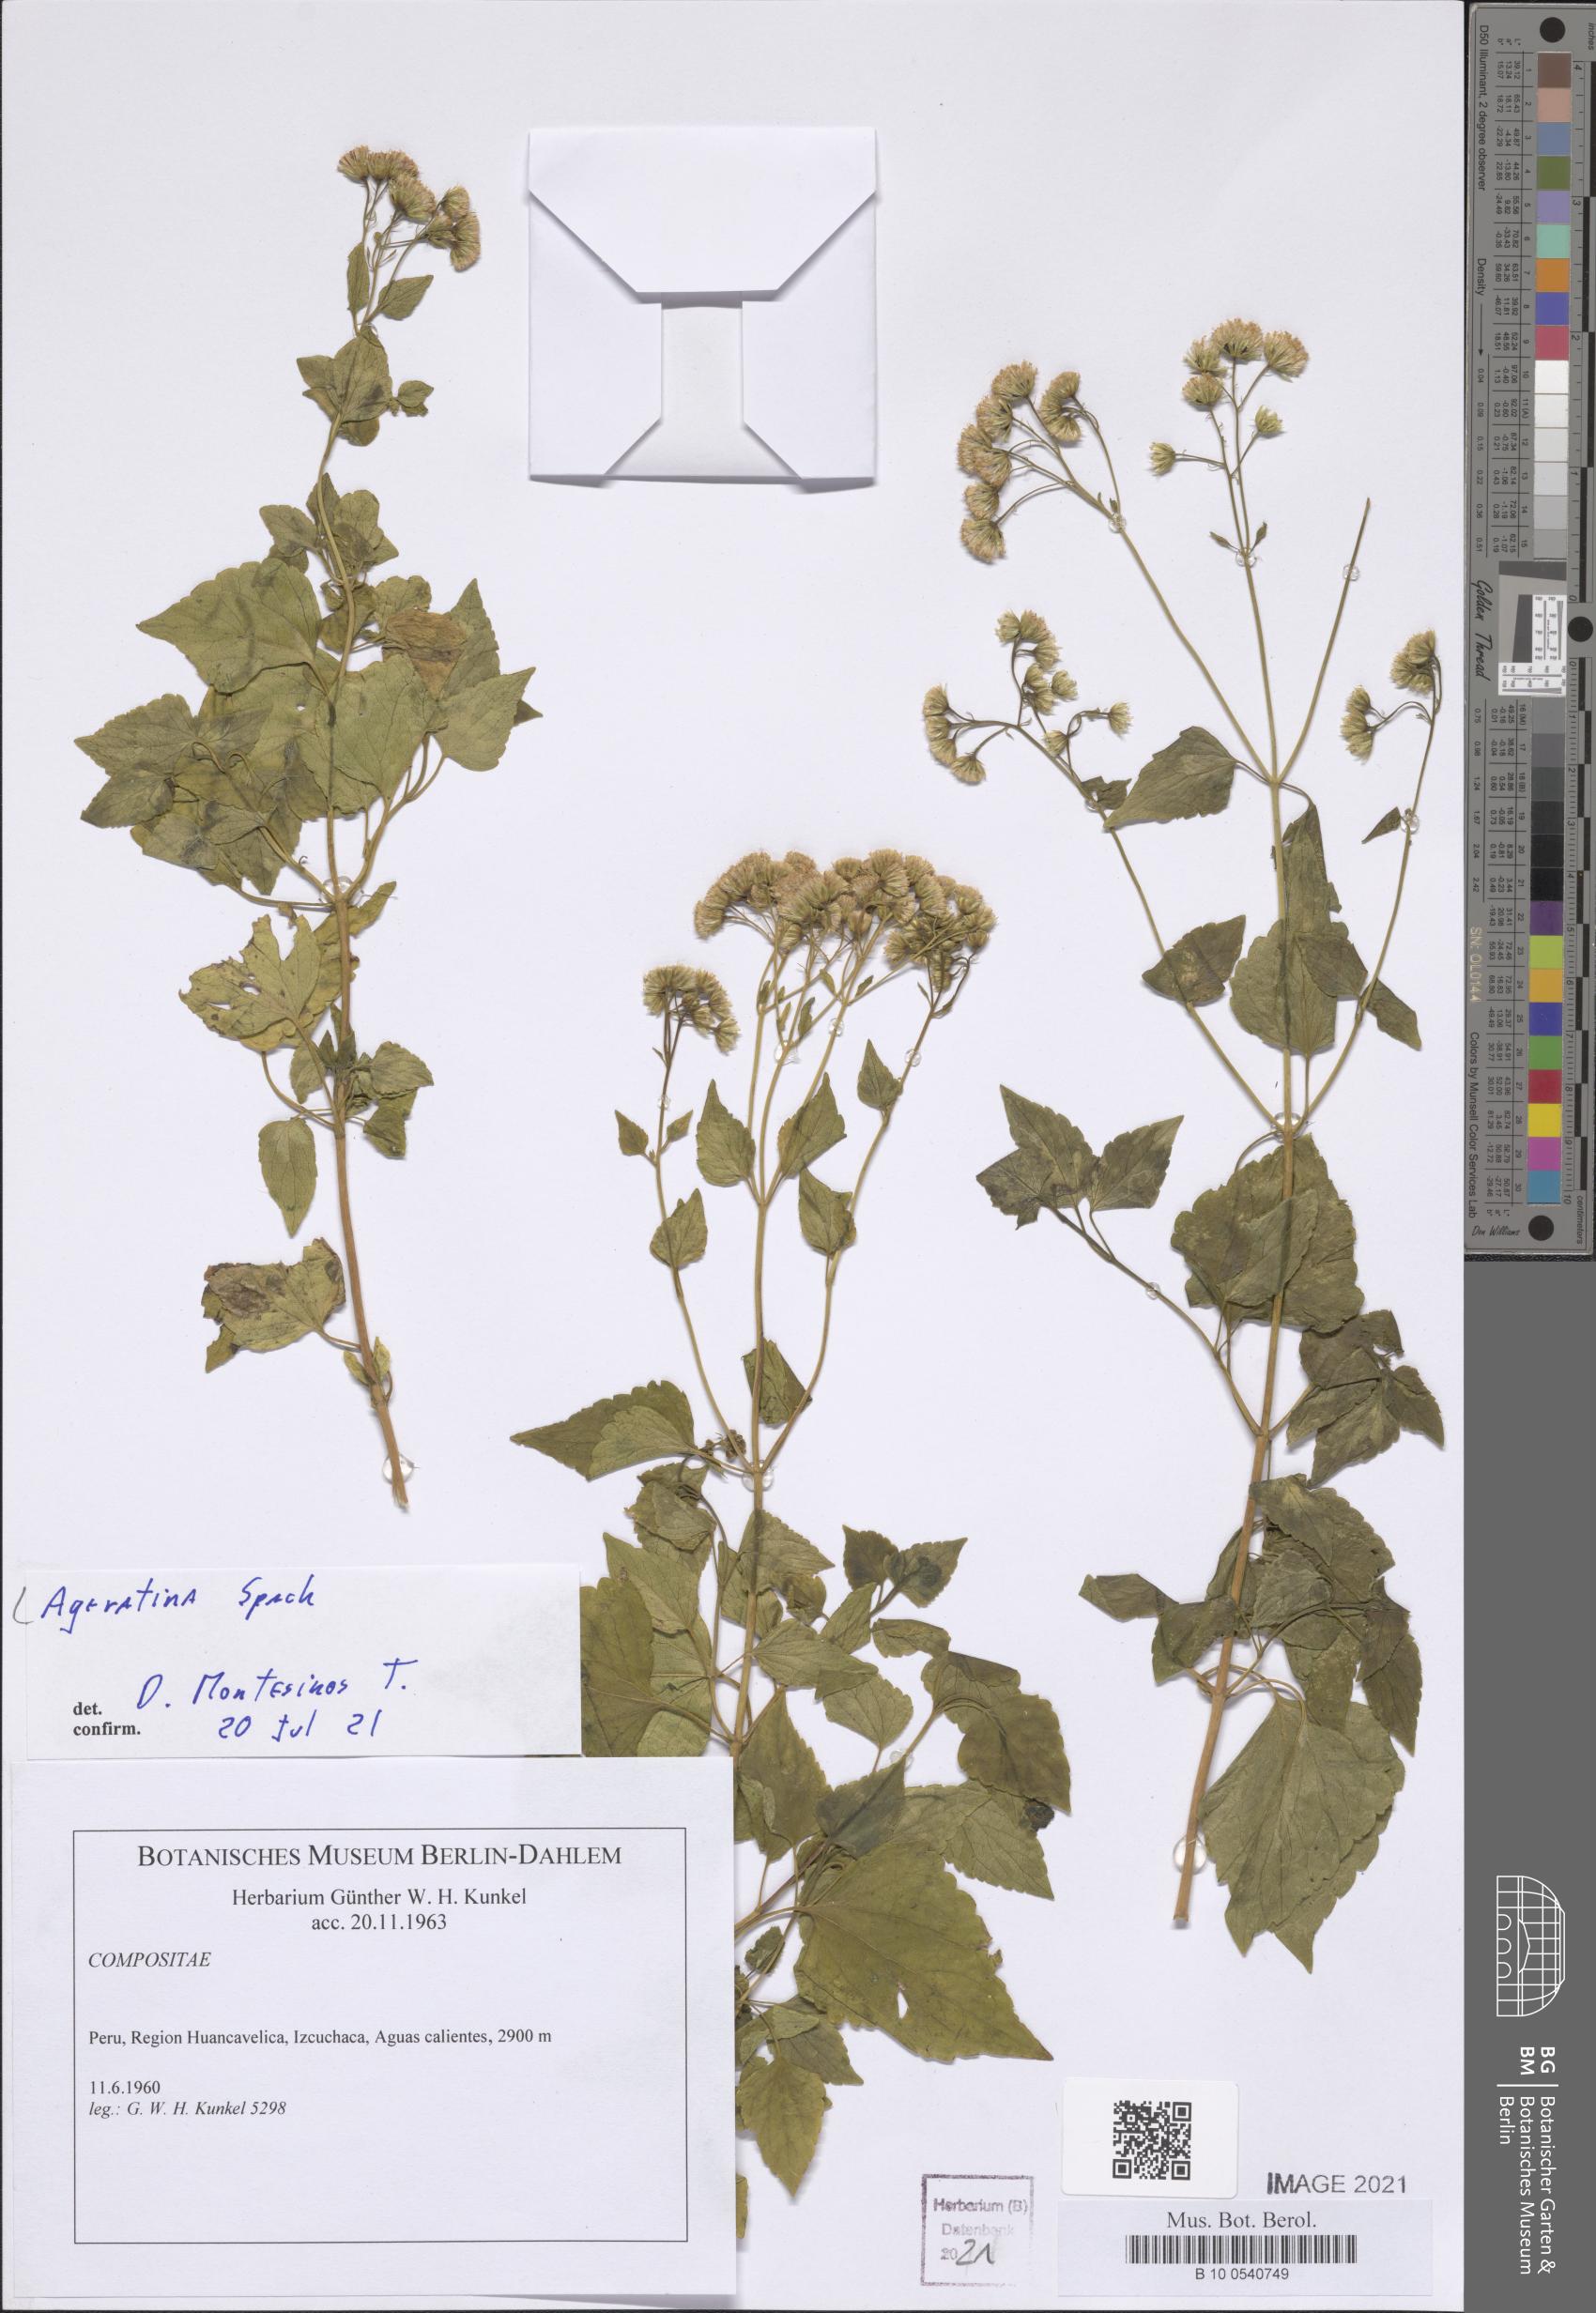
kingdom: Plantae
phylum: Tracheophyta
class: Magnoliopsida
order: Asterales
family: Asteraceae
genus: Ageratina
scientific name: Ageratina
